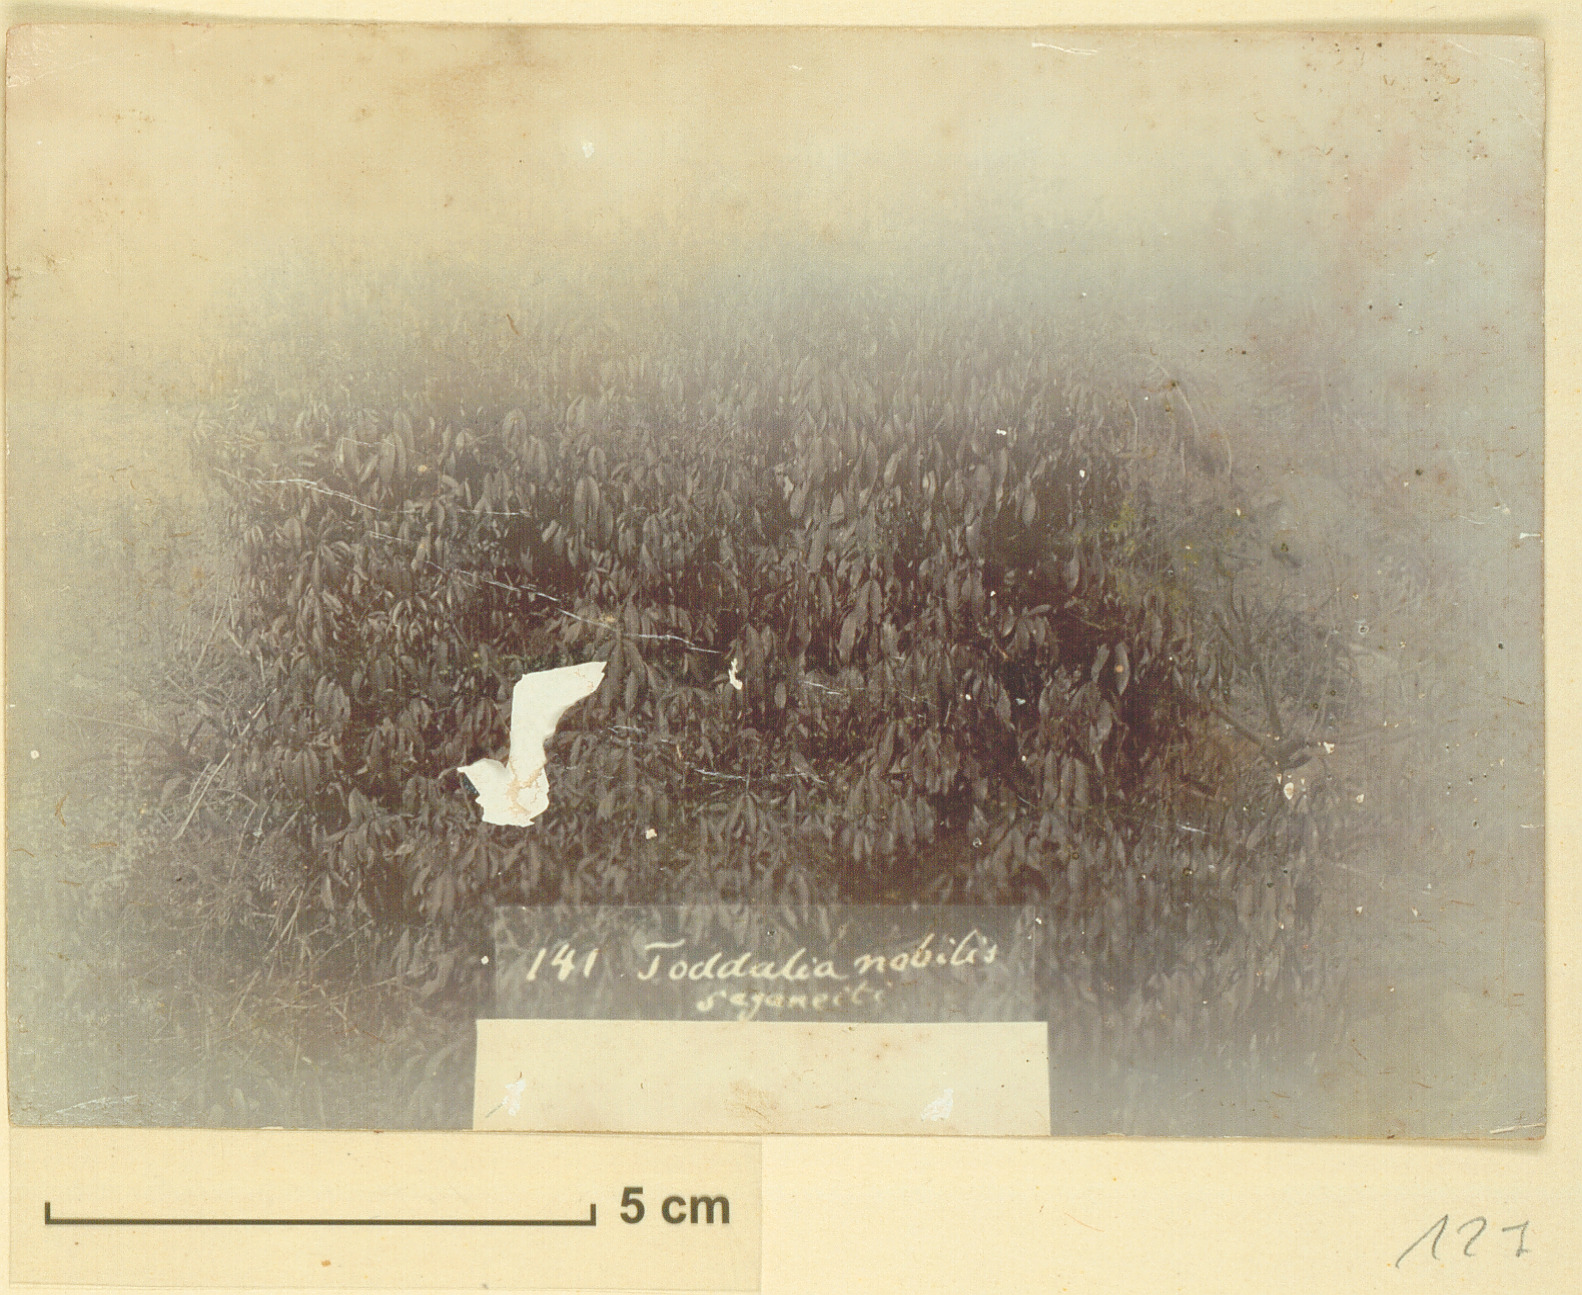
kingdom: Plantae
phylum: Tracheophyta
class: Magnoliopsida
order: Sapindales
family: Rutaceae
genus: Vepris
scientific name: Vepris nobilis
